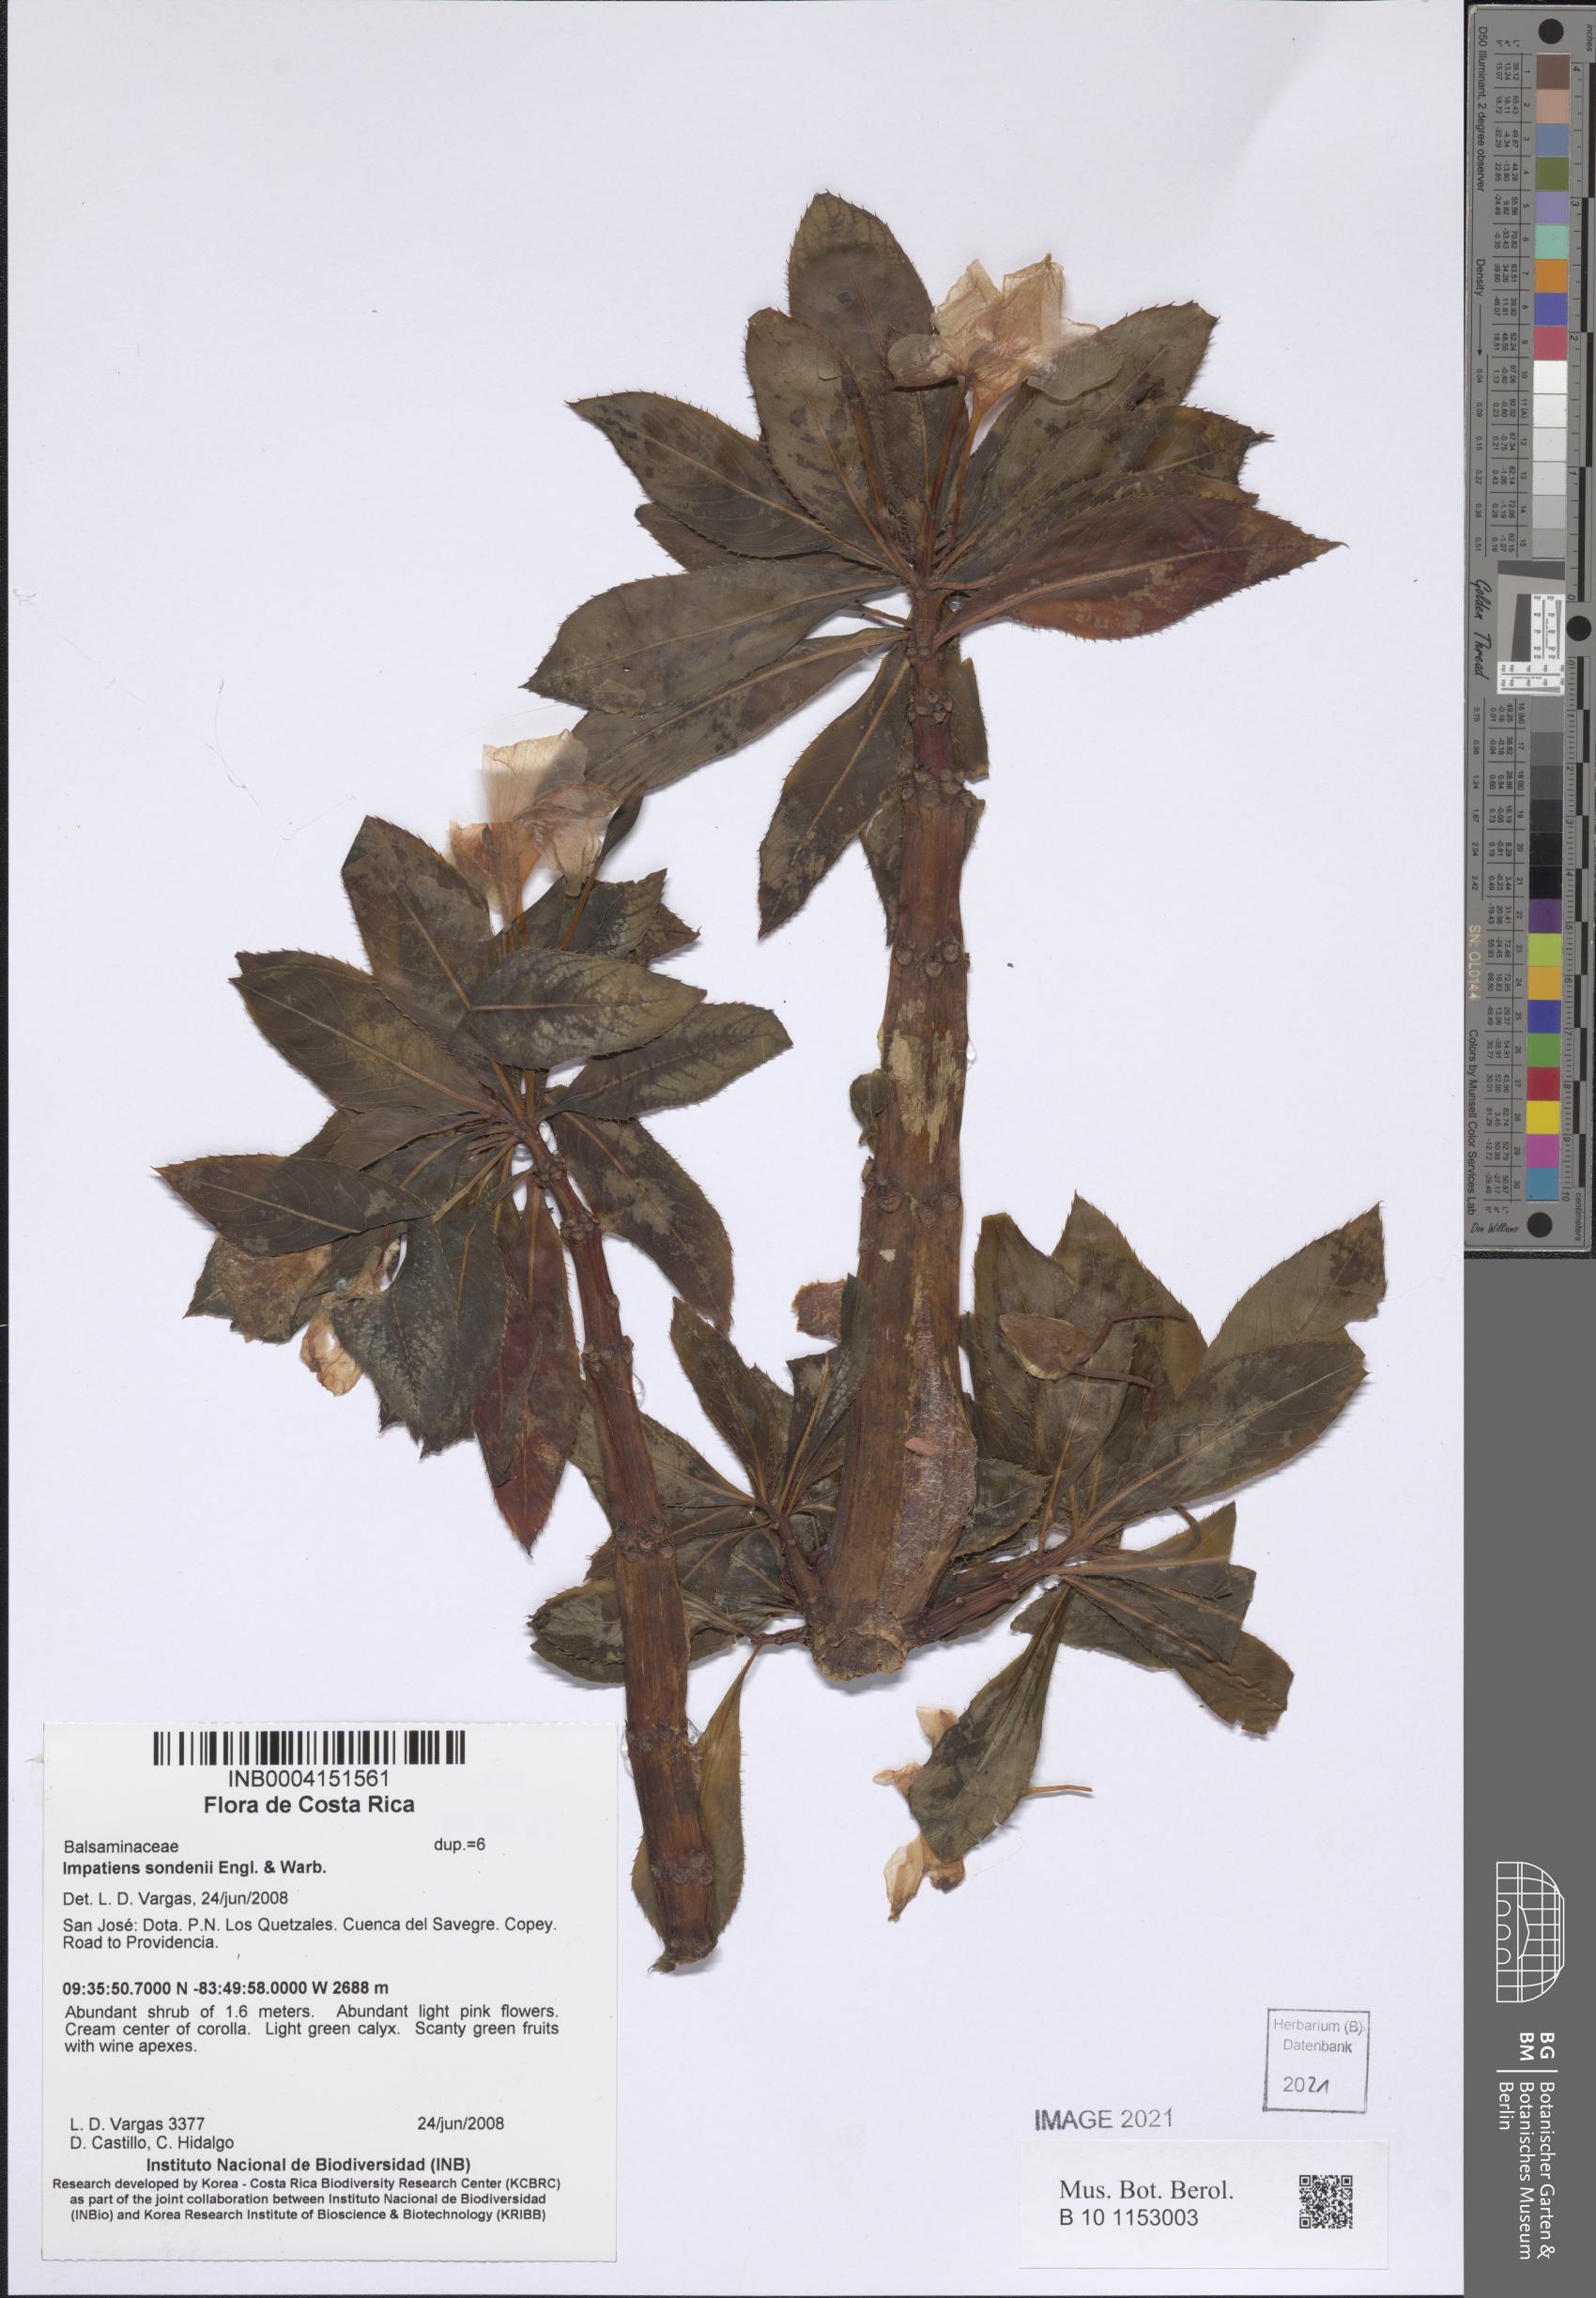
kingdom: Plantae
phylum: Tracheophyta
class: Magnoliopsida
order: Ericales
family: Balsaminaceae
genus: Impatiens
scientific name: Impatiens sodenii
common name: Oliver's touch-me-not
